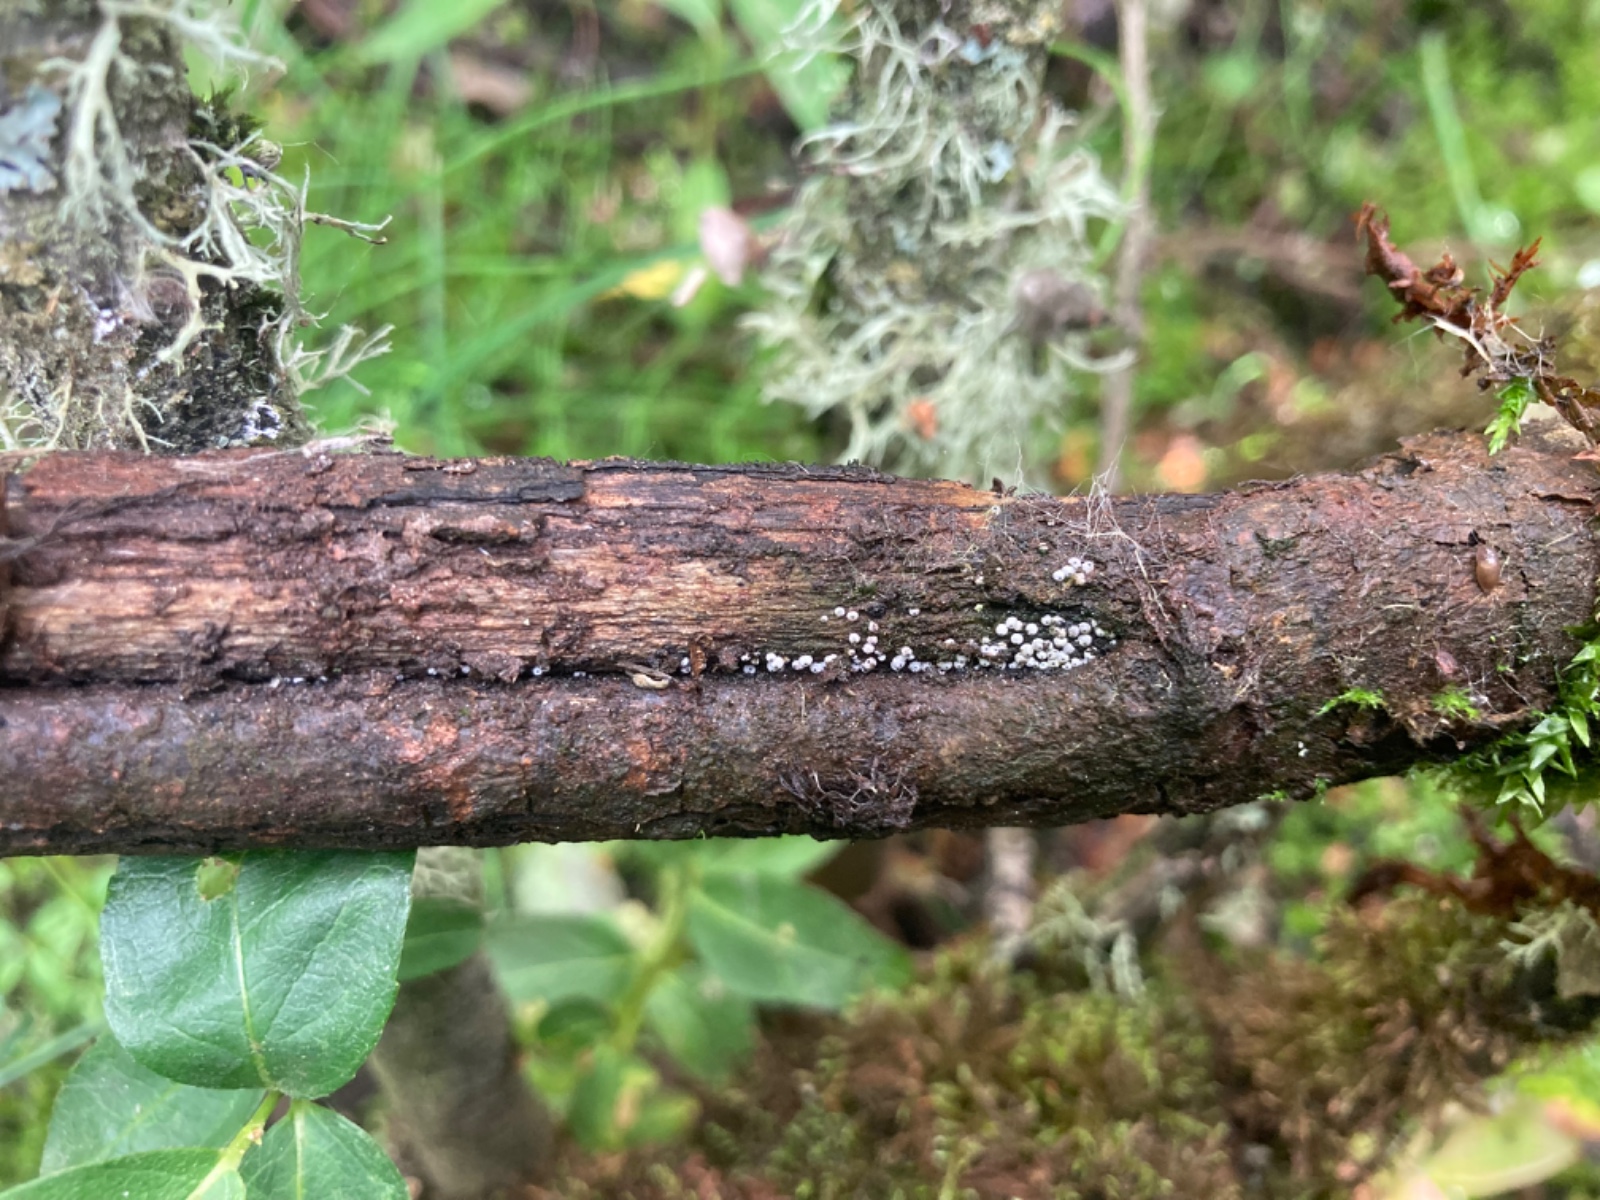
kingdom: Fungi
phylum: Ascomycota
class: Sordariomycetes
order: Sordariales
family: Lasiosphaeriaceae
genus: Lasiosphaeria
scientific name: Lasiosphaeria ovina
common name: fåre-kernesvamp
